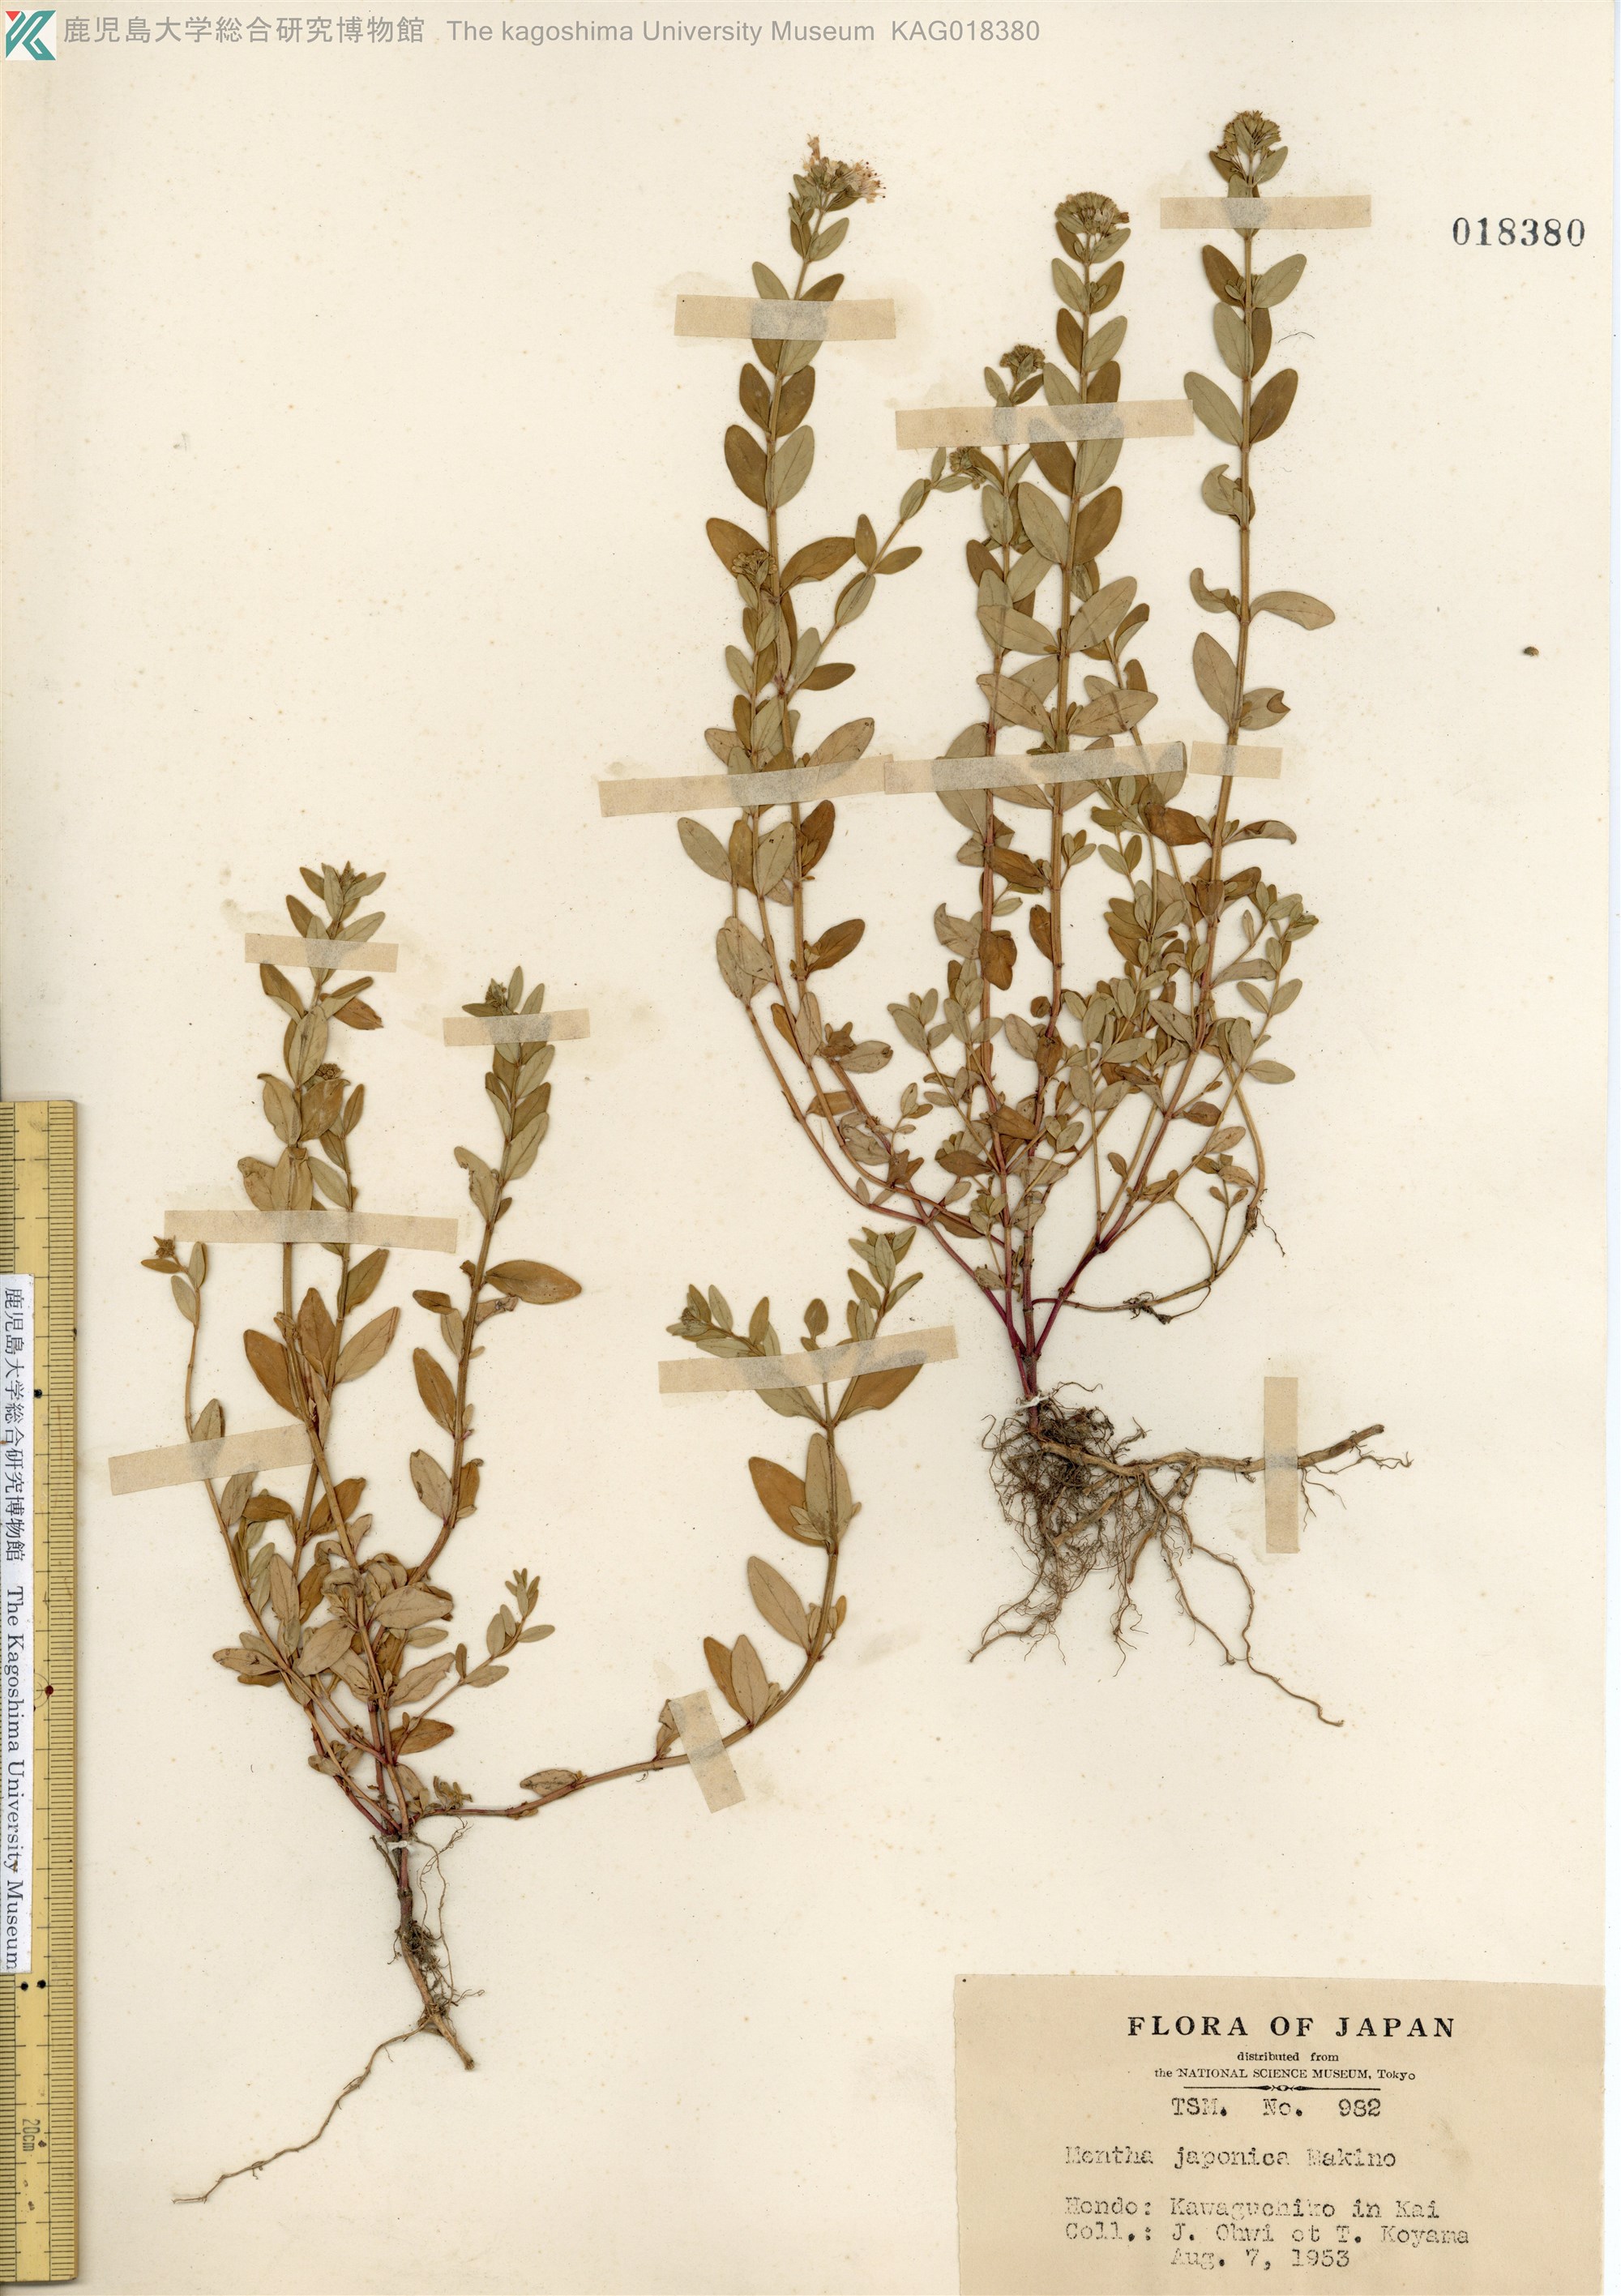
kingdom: Plantae
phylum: Tracheophyta
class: Magnoliopsida
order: Lamiales
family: Lamiaceae
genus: Mentha
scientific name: Mentha japonica
